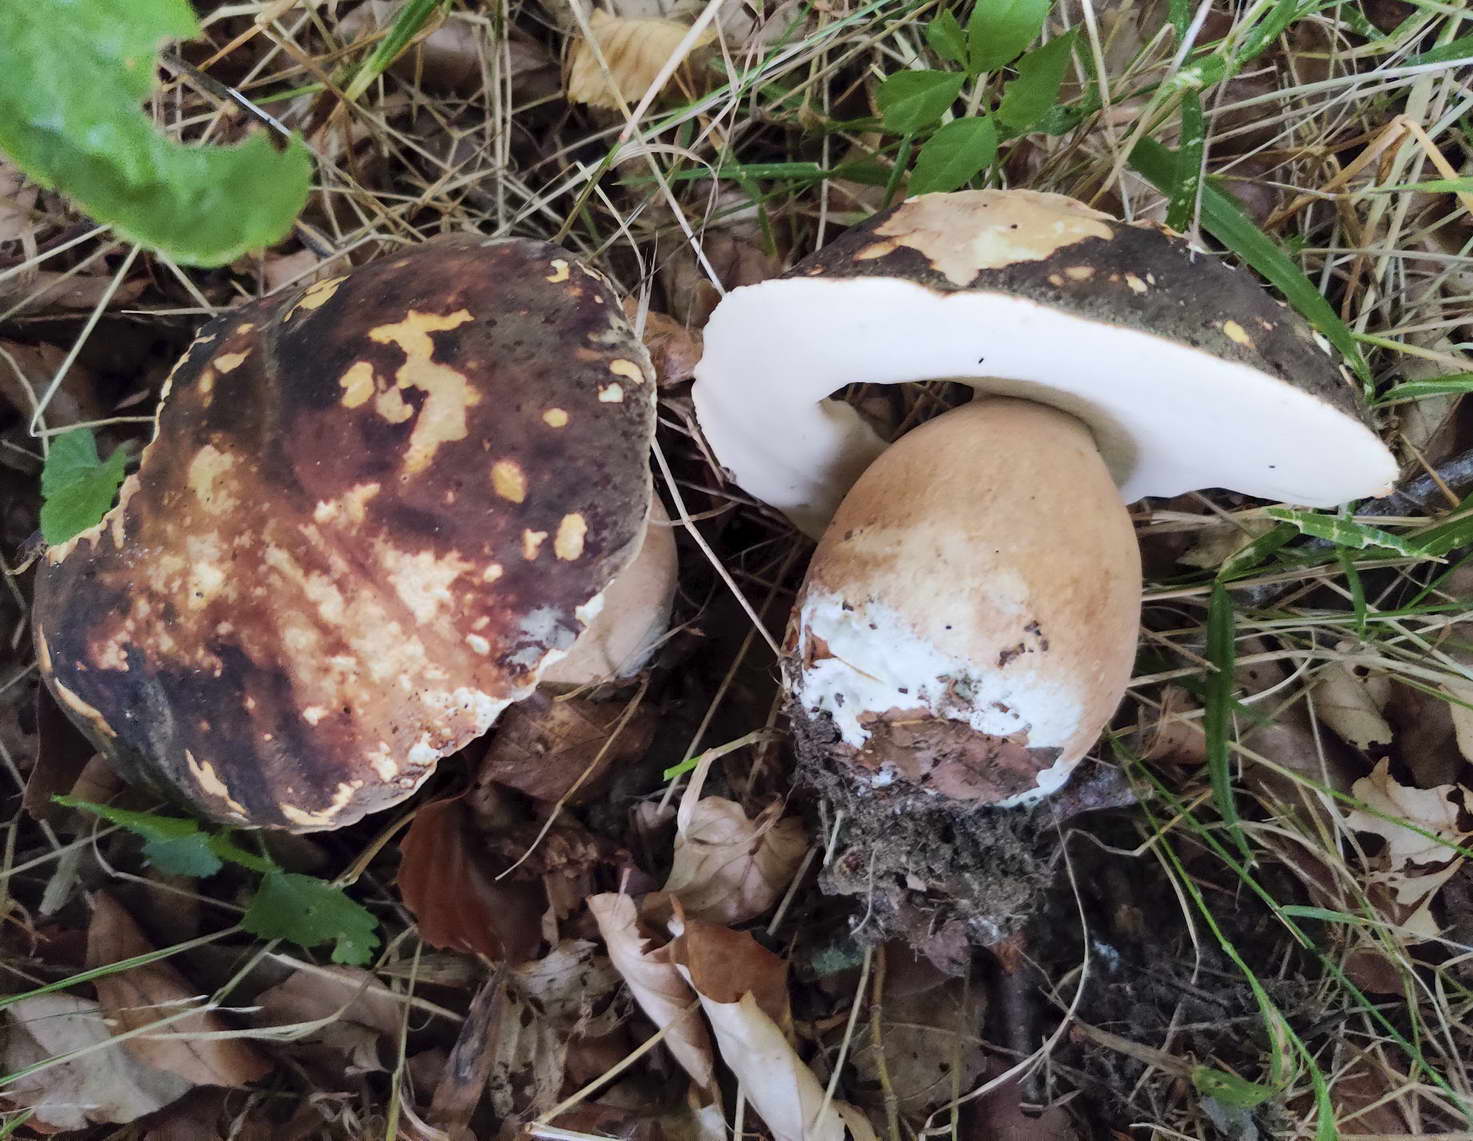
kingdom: Fungi
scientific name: Fungi
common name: bronze-rørhat
